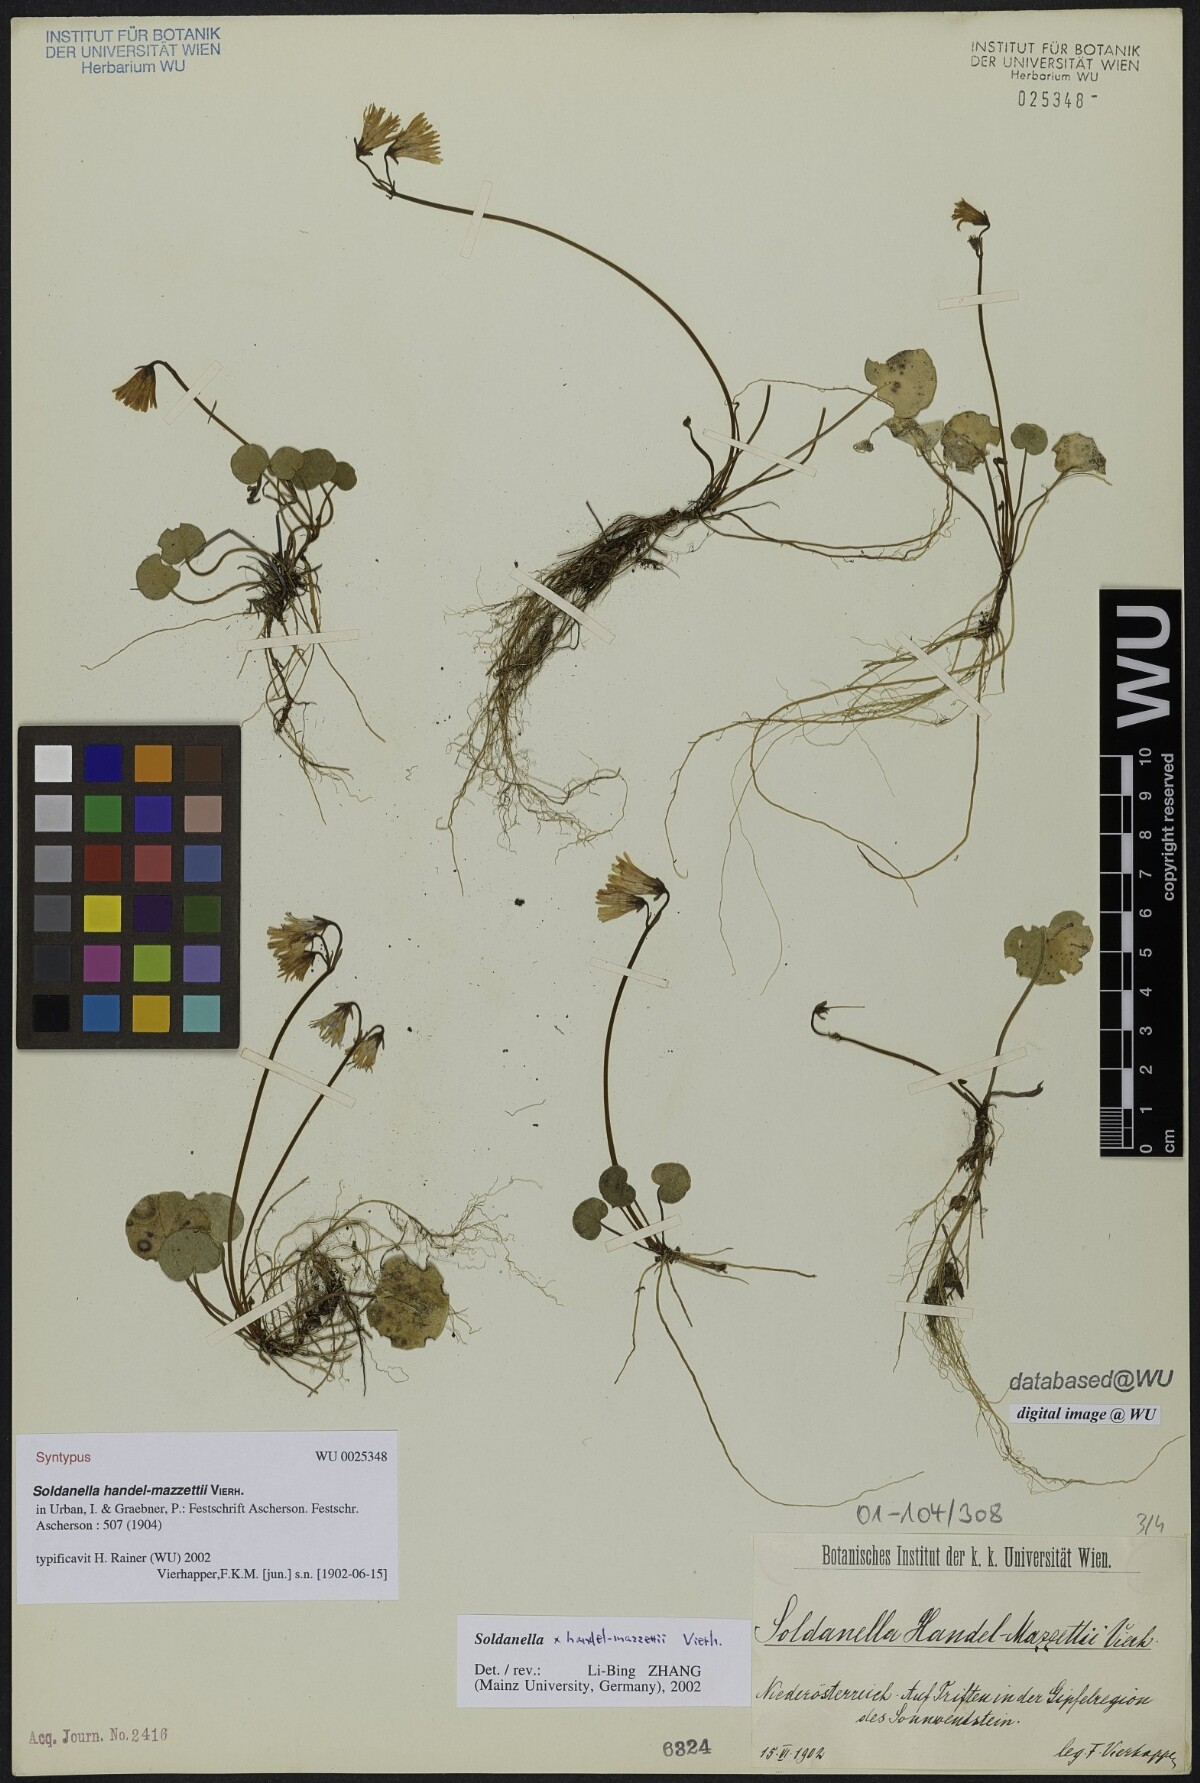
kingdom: Plantae
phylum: Tracheophyta
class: Magnoliopsida
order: Ericales
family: Primulaceae
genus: Soldanella
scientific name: Soldanella handel-mazzettii
